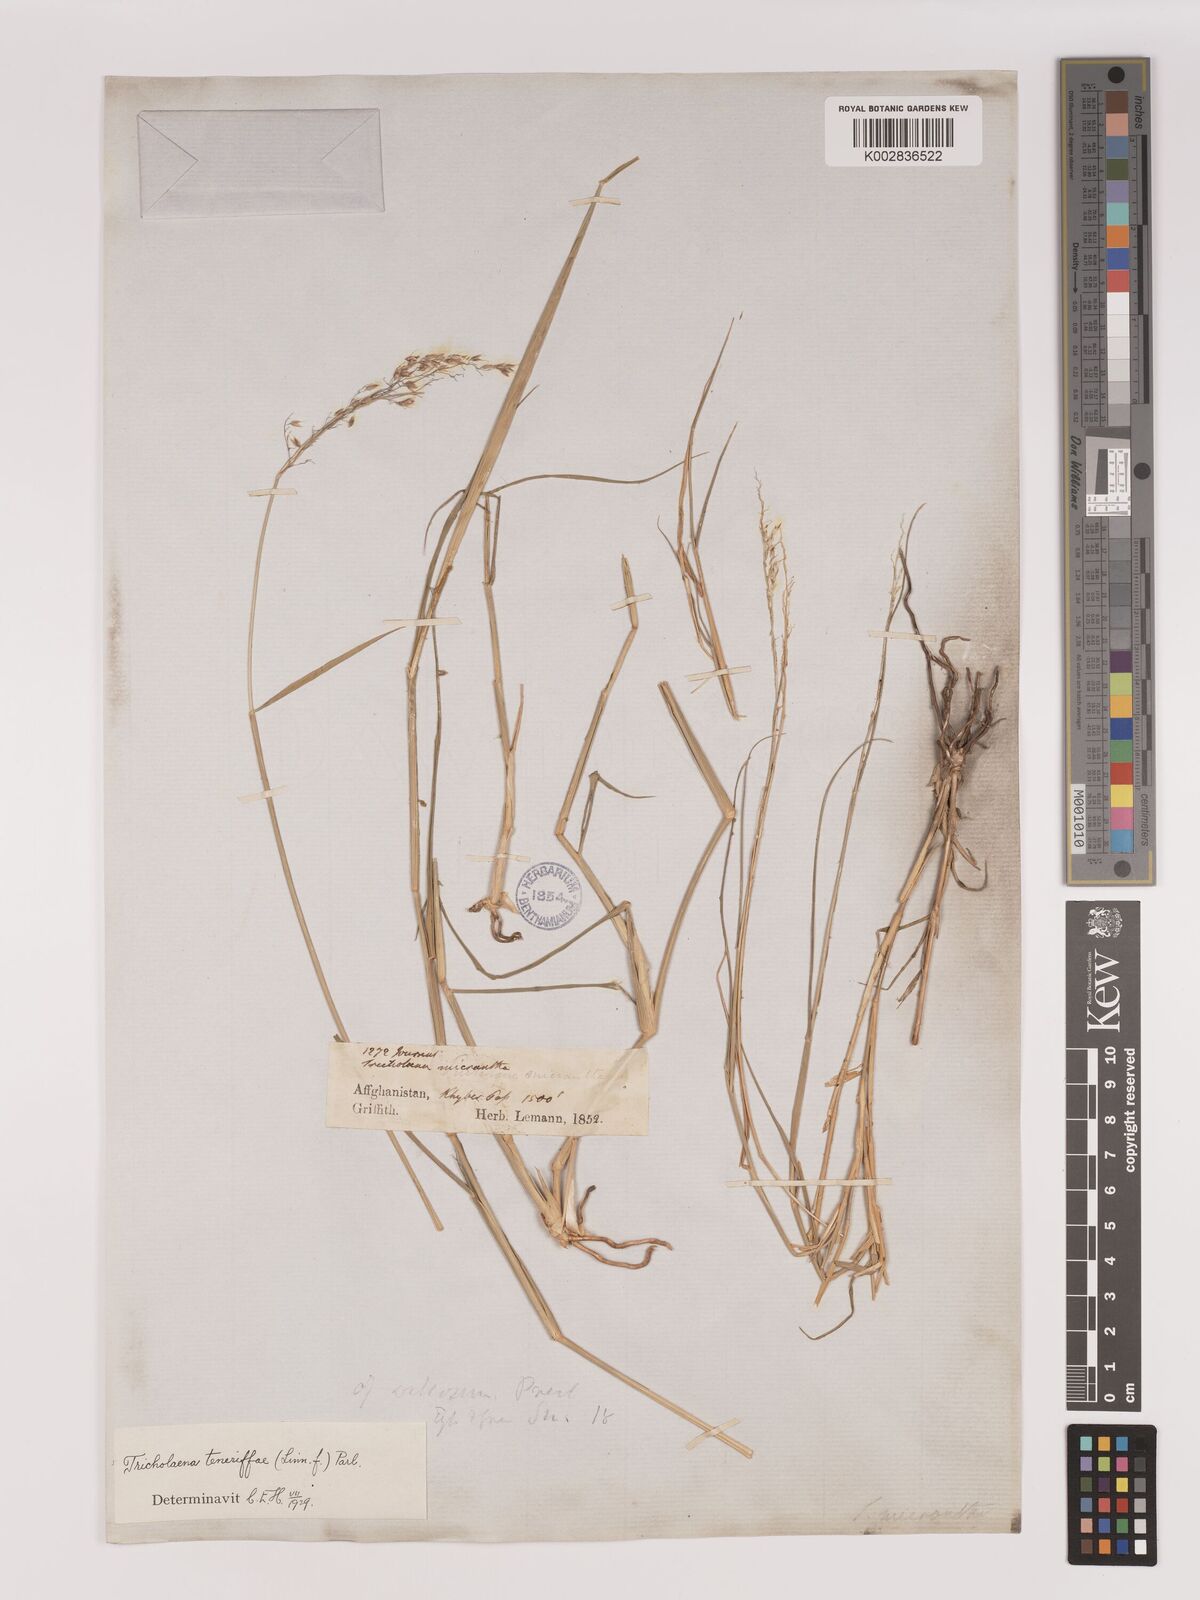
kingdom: Plantae
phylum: Tracheophyta
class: Liliopsida
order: Poales
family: Poaceae
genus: Tricholaena
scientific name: Tricholaena teneriffae
